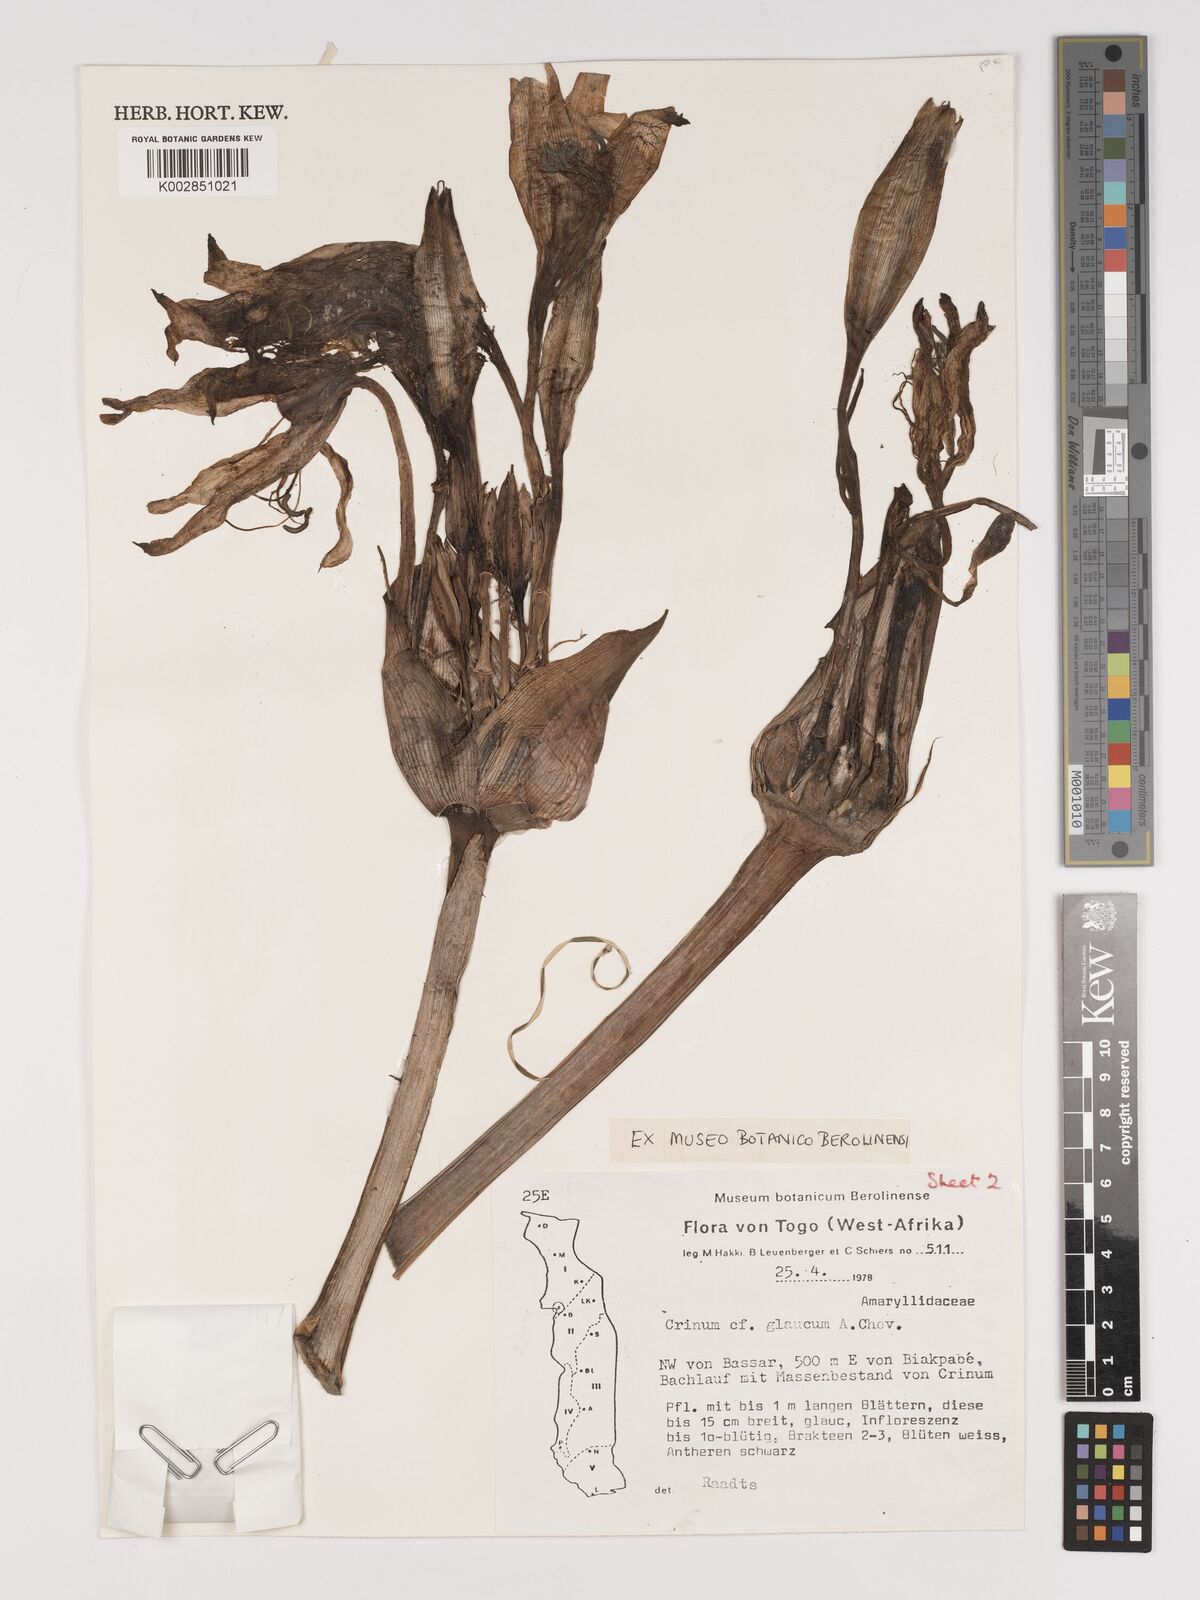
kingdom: Plantae
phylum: Tracheophyta
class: Liliopsida
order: Asparagales
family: Amaryllidaceae
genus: Crinum
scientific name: Crinum glaucum
